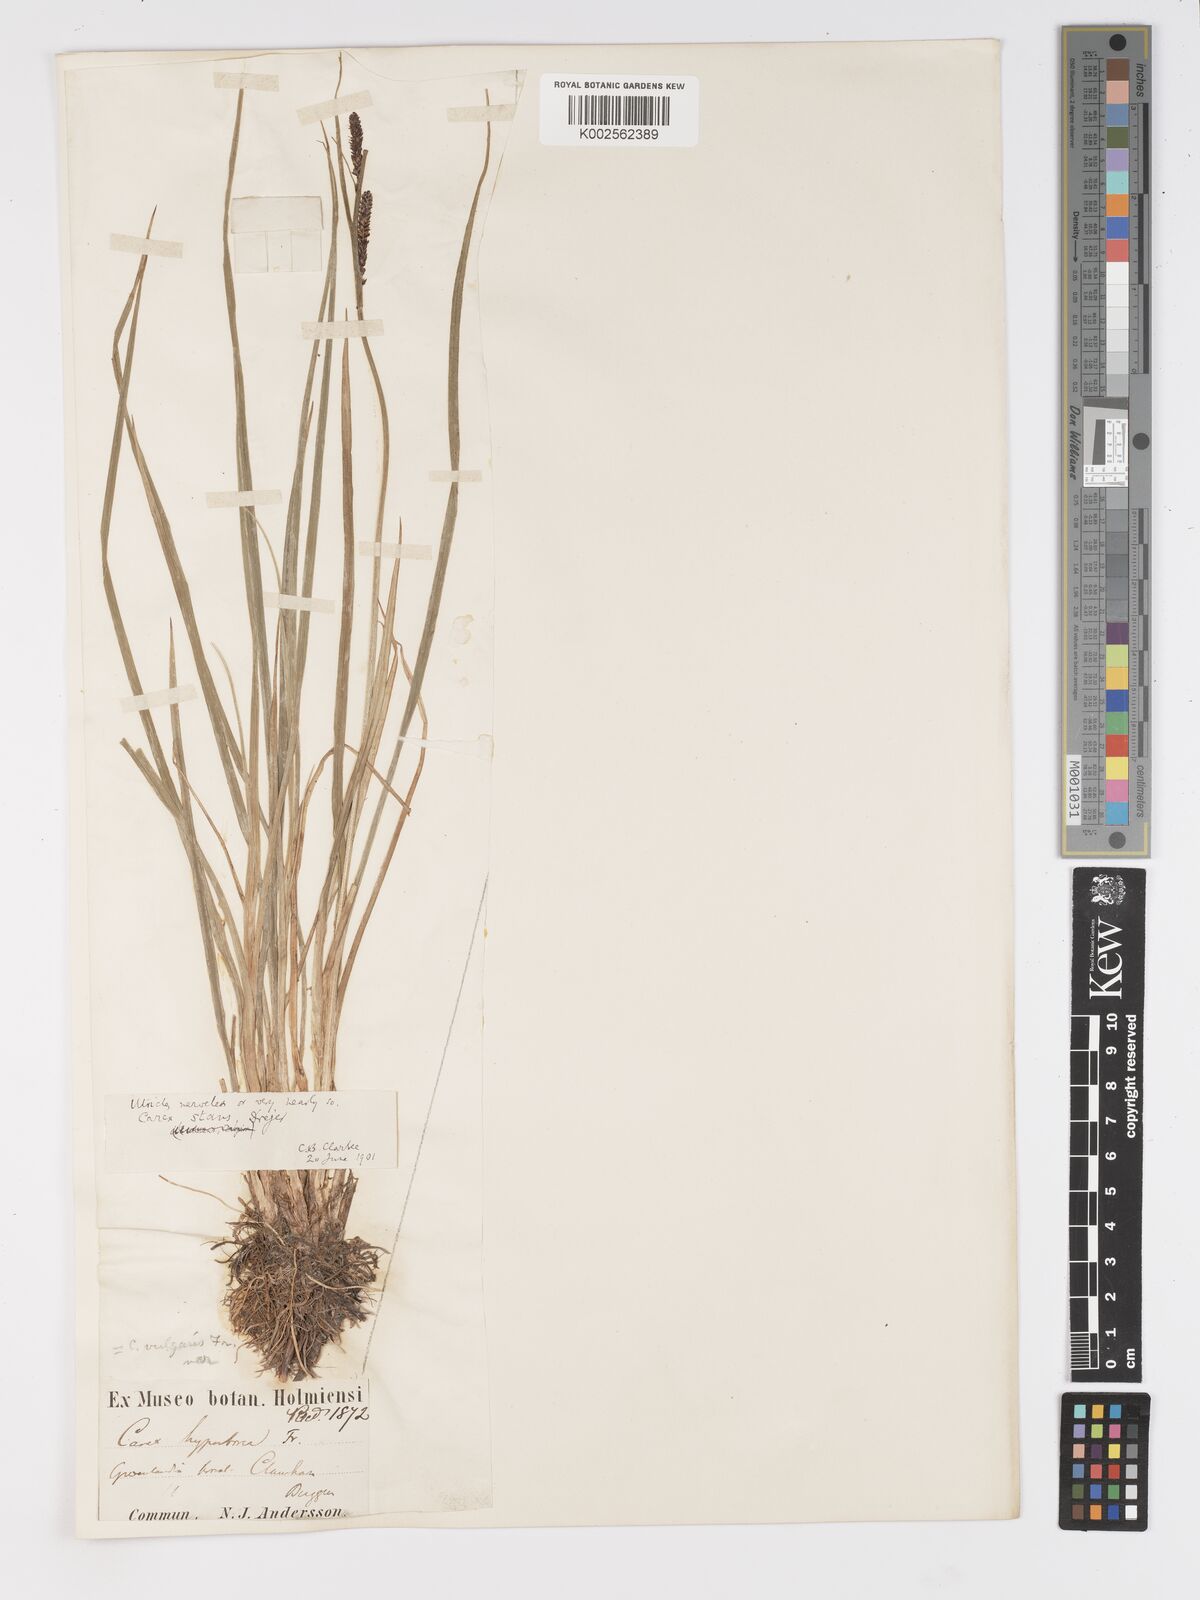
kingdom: Plantae
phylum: Tracheophyta
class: Liliopsida
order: Poales
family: Cyperaceae
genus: Carex
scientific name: Carex aquatilis
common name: Water sedge
